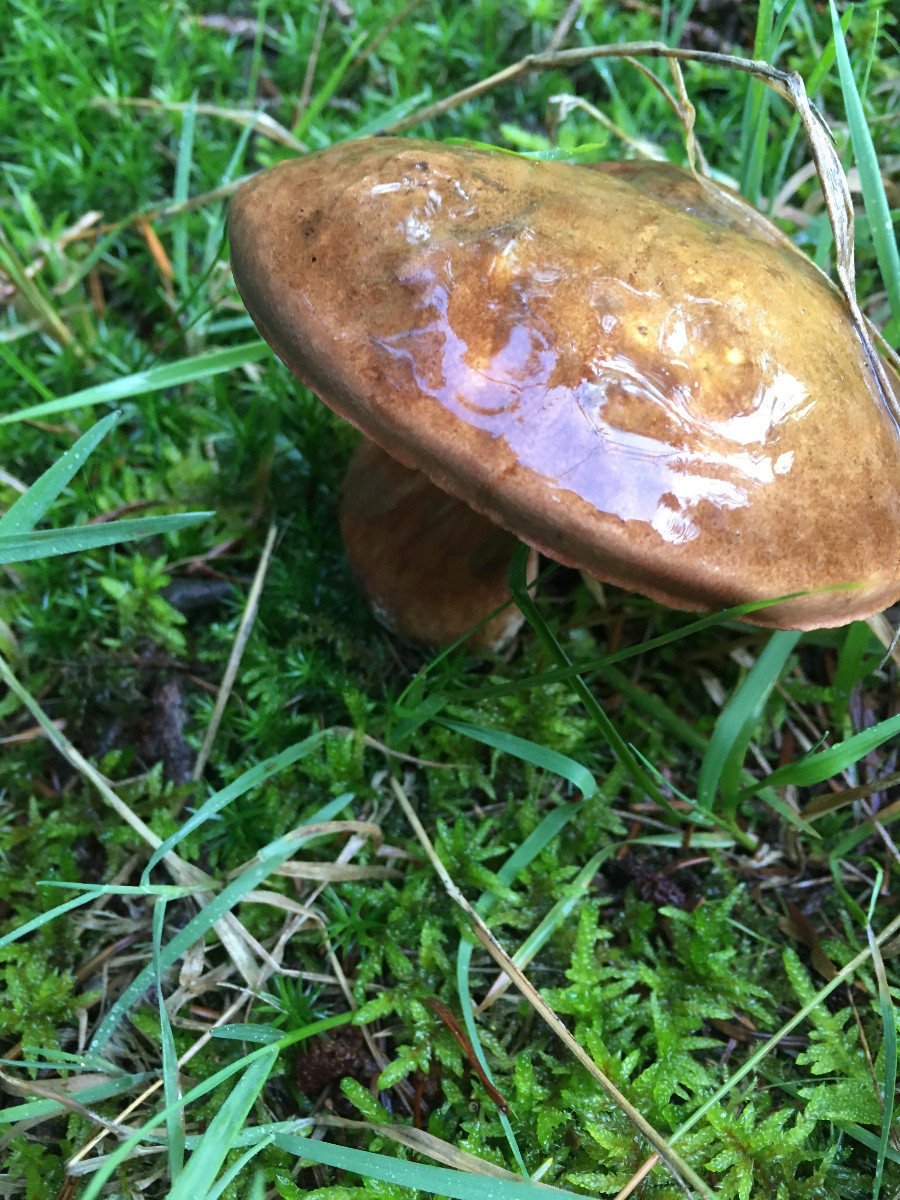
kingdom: Fungi
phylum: Basidiomycota
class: Agaricomycetes
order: Boletales
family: Boletaceae
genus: Neoboletus
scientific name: Neoboletus erythropus
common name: punktstokket indigorørhat
